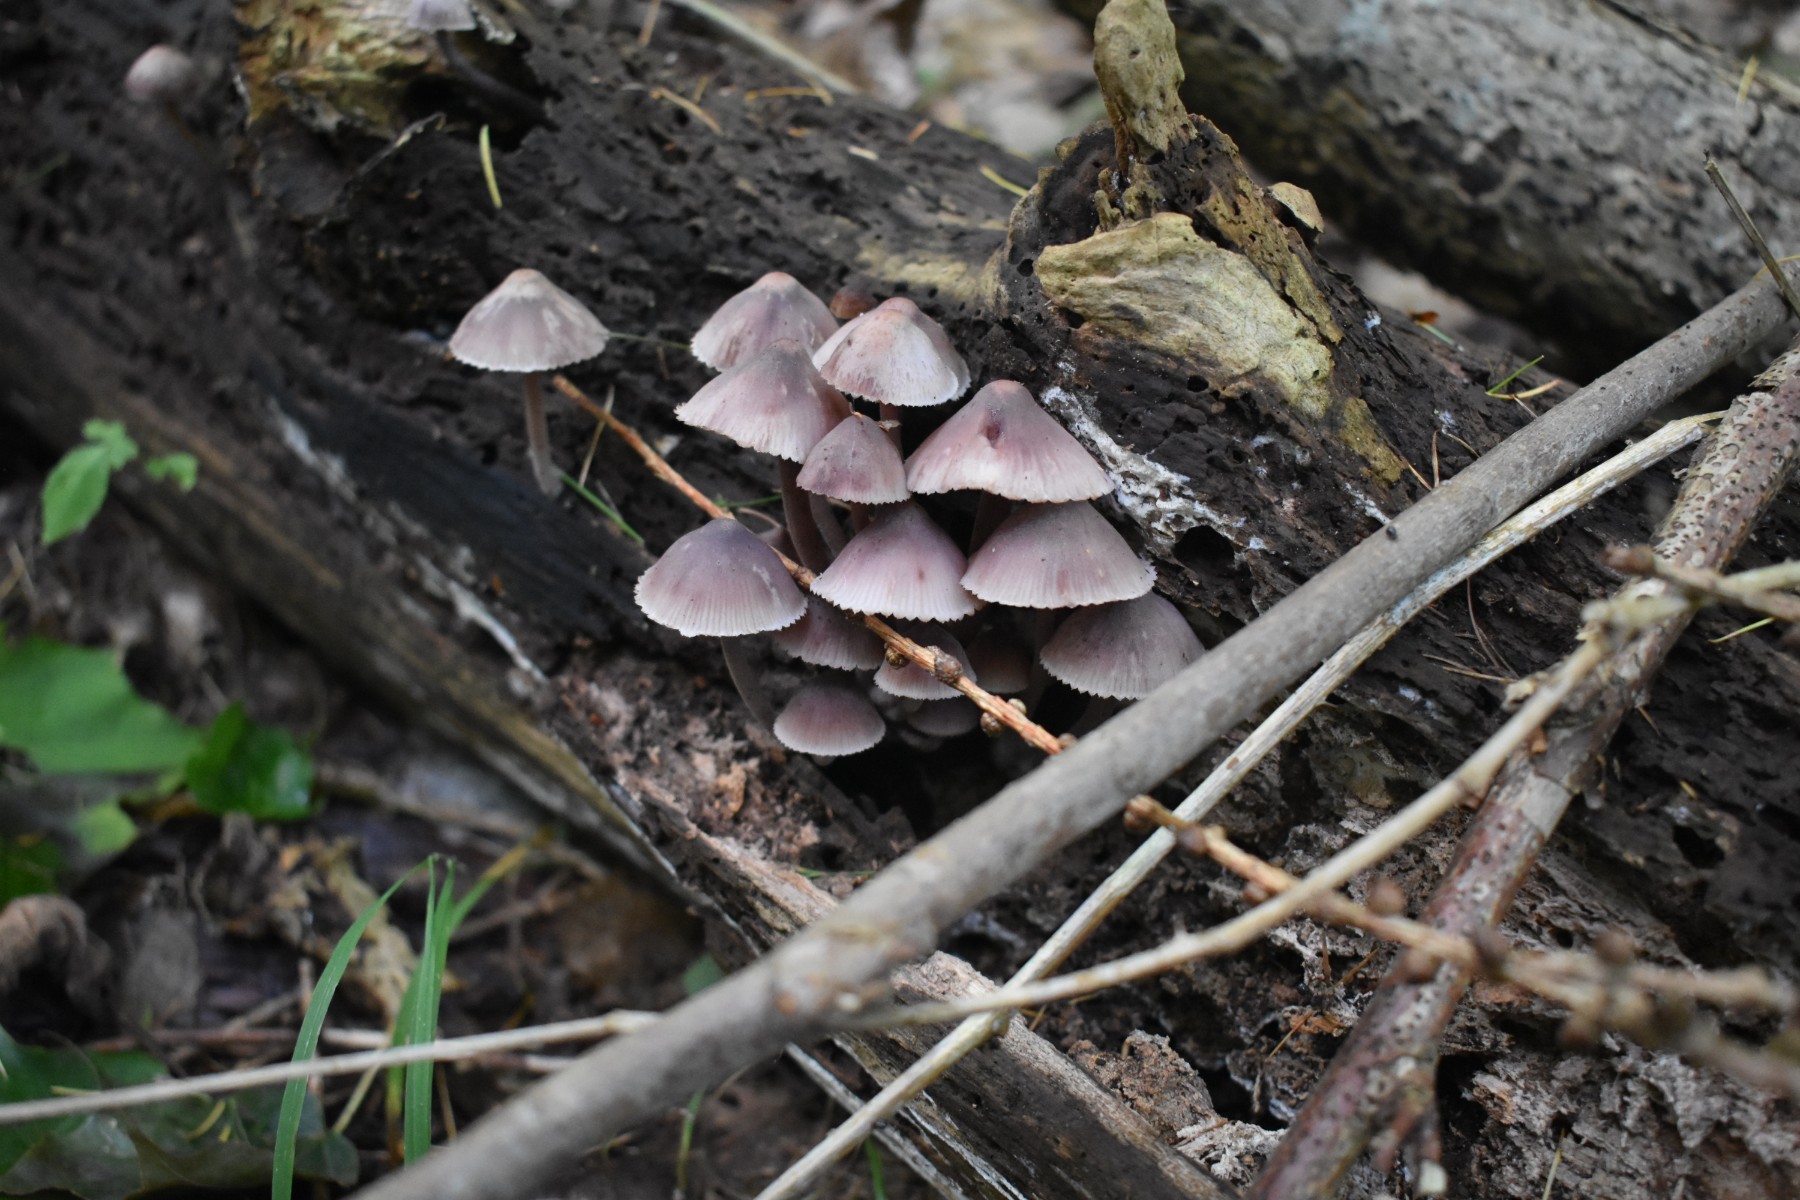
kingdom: Fungi
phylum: Basidiomycota
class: Agaricomycetes
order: Agaricales
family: Mycenaceae
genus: Mycena
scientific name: Mycena haematopus
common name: blødende huesvamp
